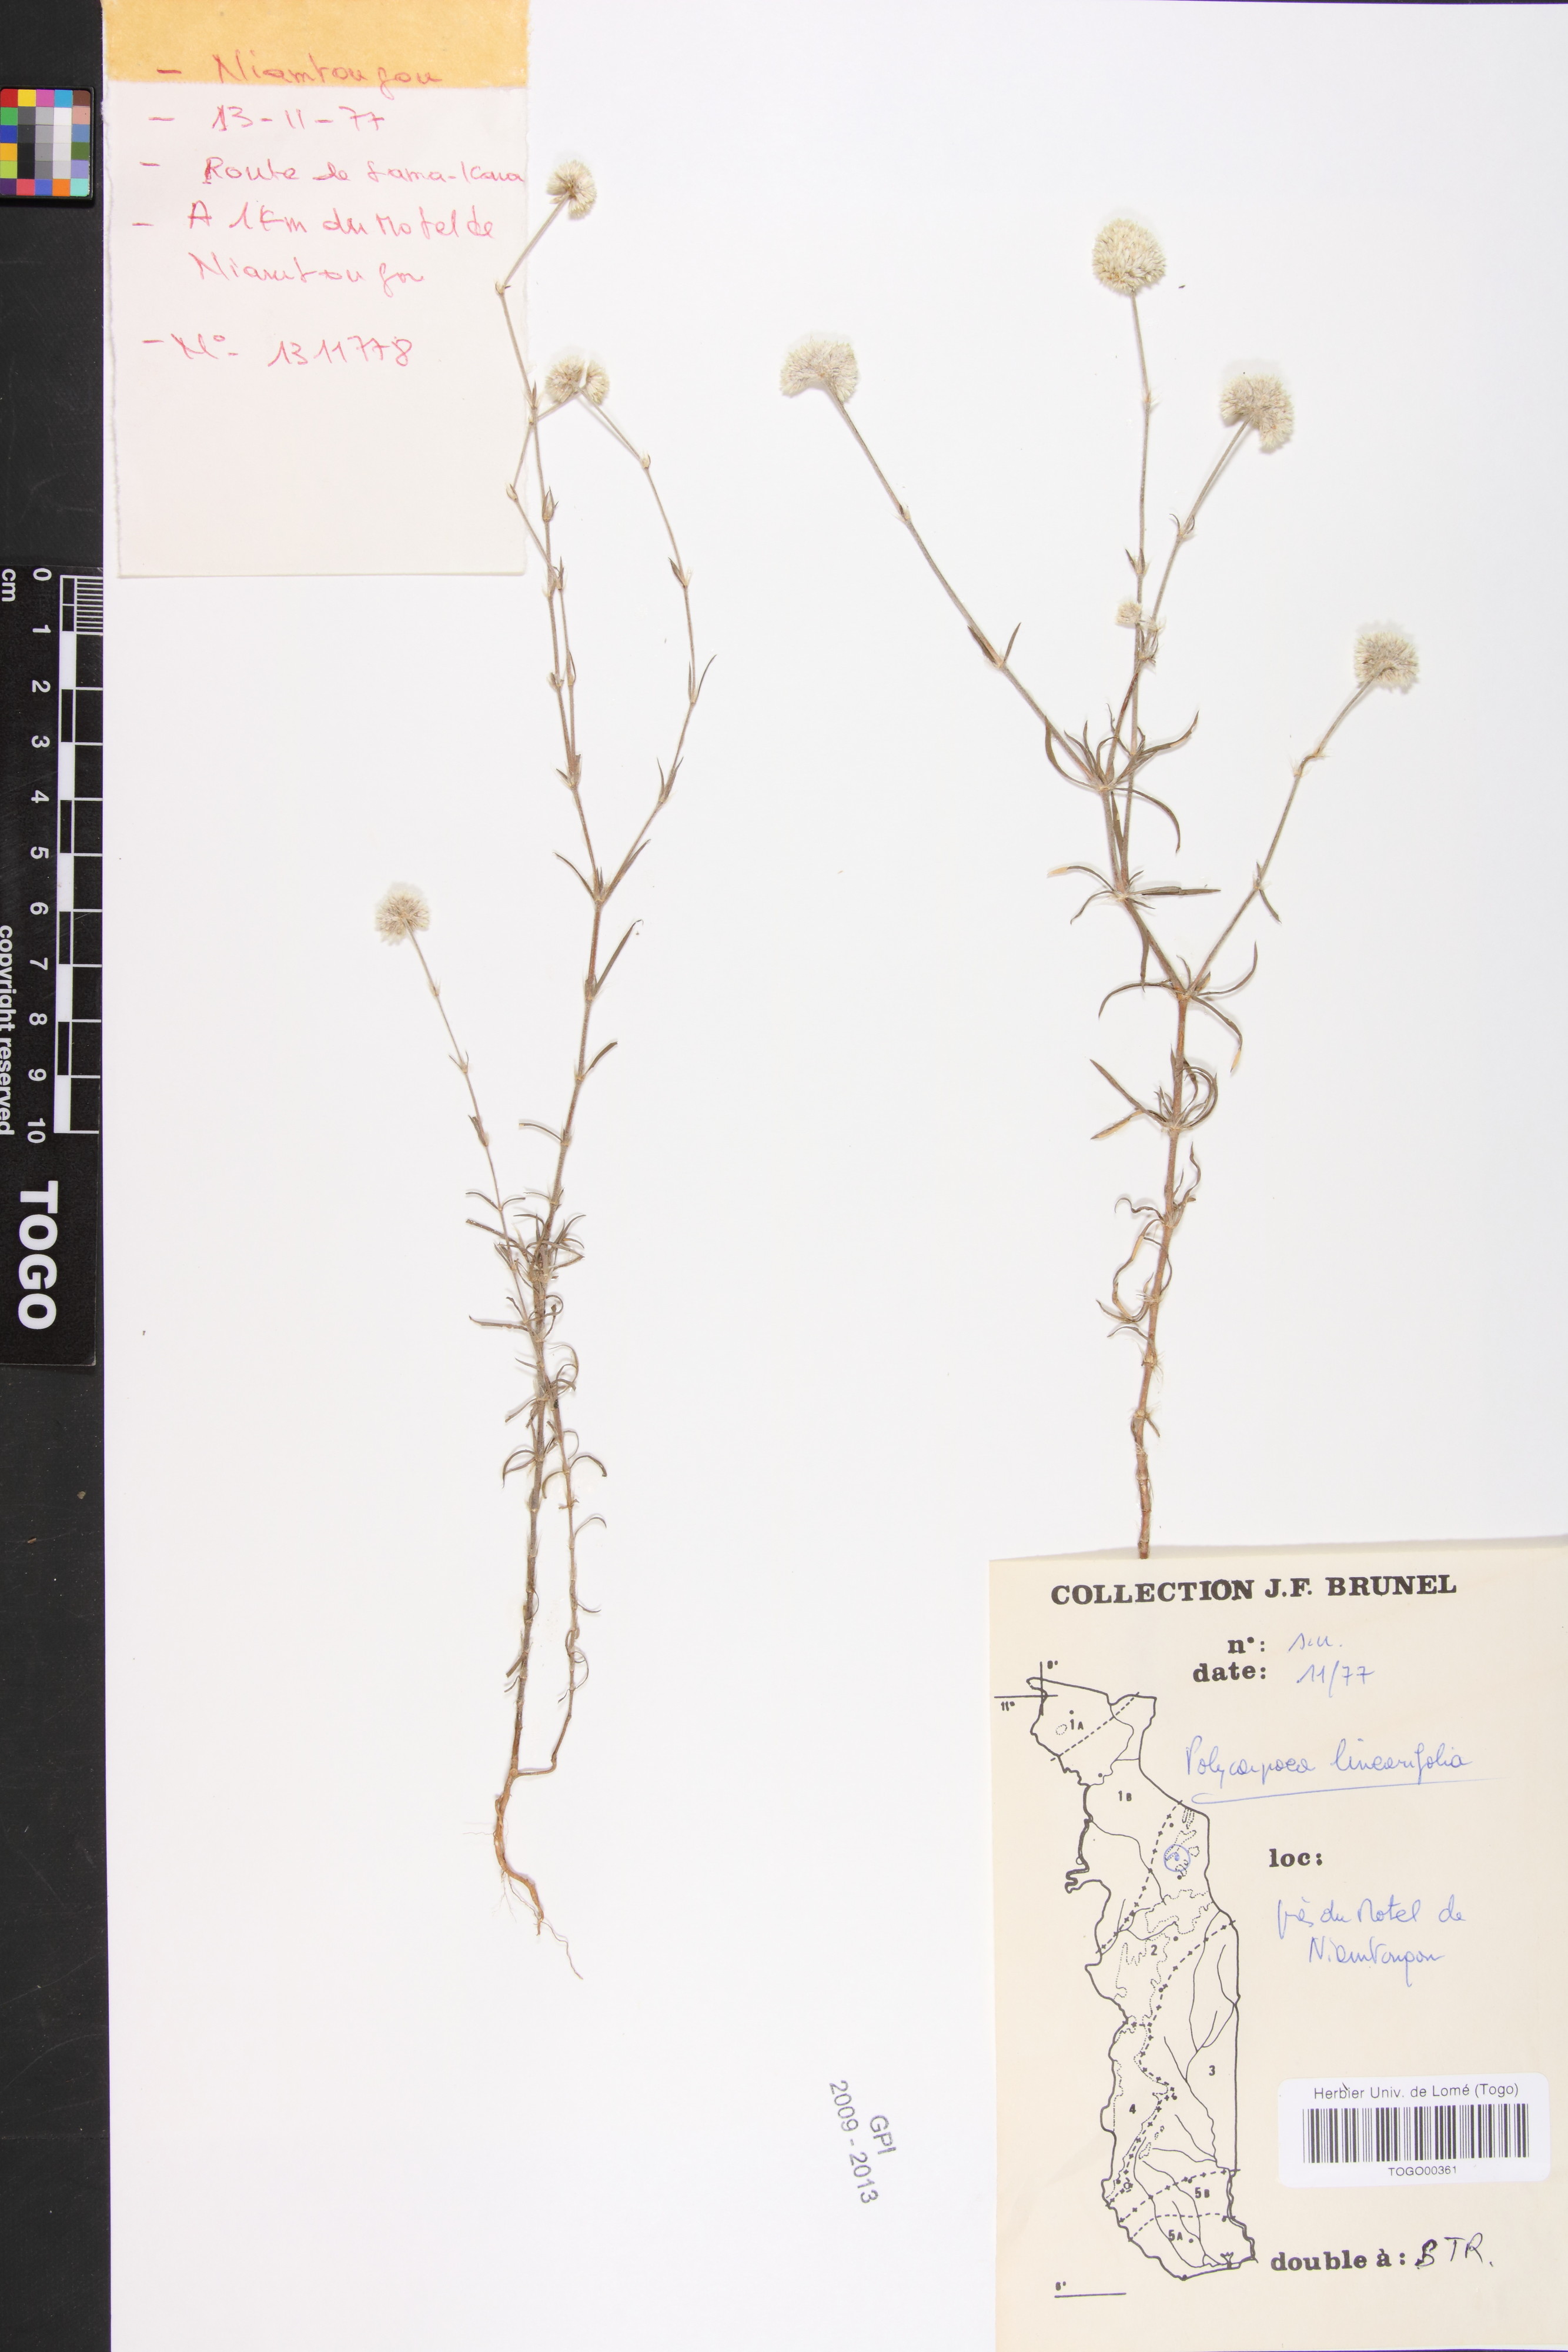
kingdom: Plantae
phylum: Tracheophyta
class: Magnoliopsida
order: Caryophyllales
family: Caryophyllaceae
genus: Polycarpaea
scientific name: Polycarpaea linearifolia
